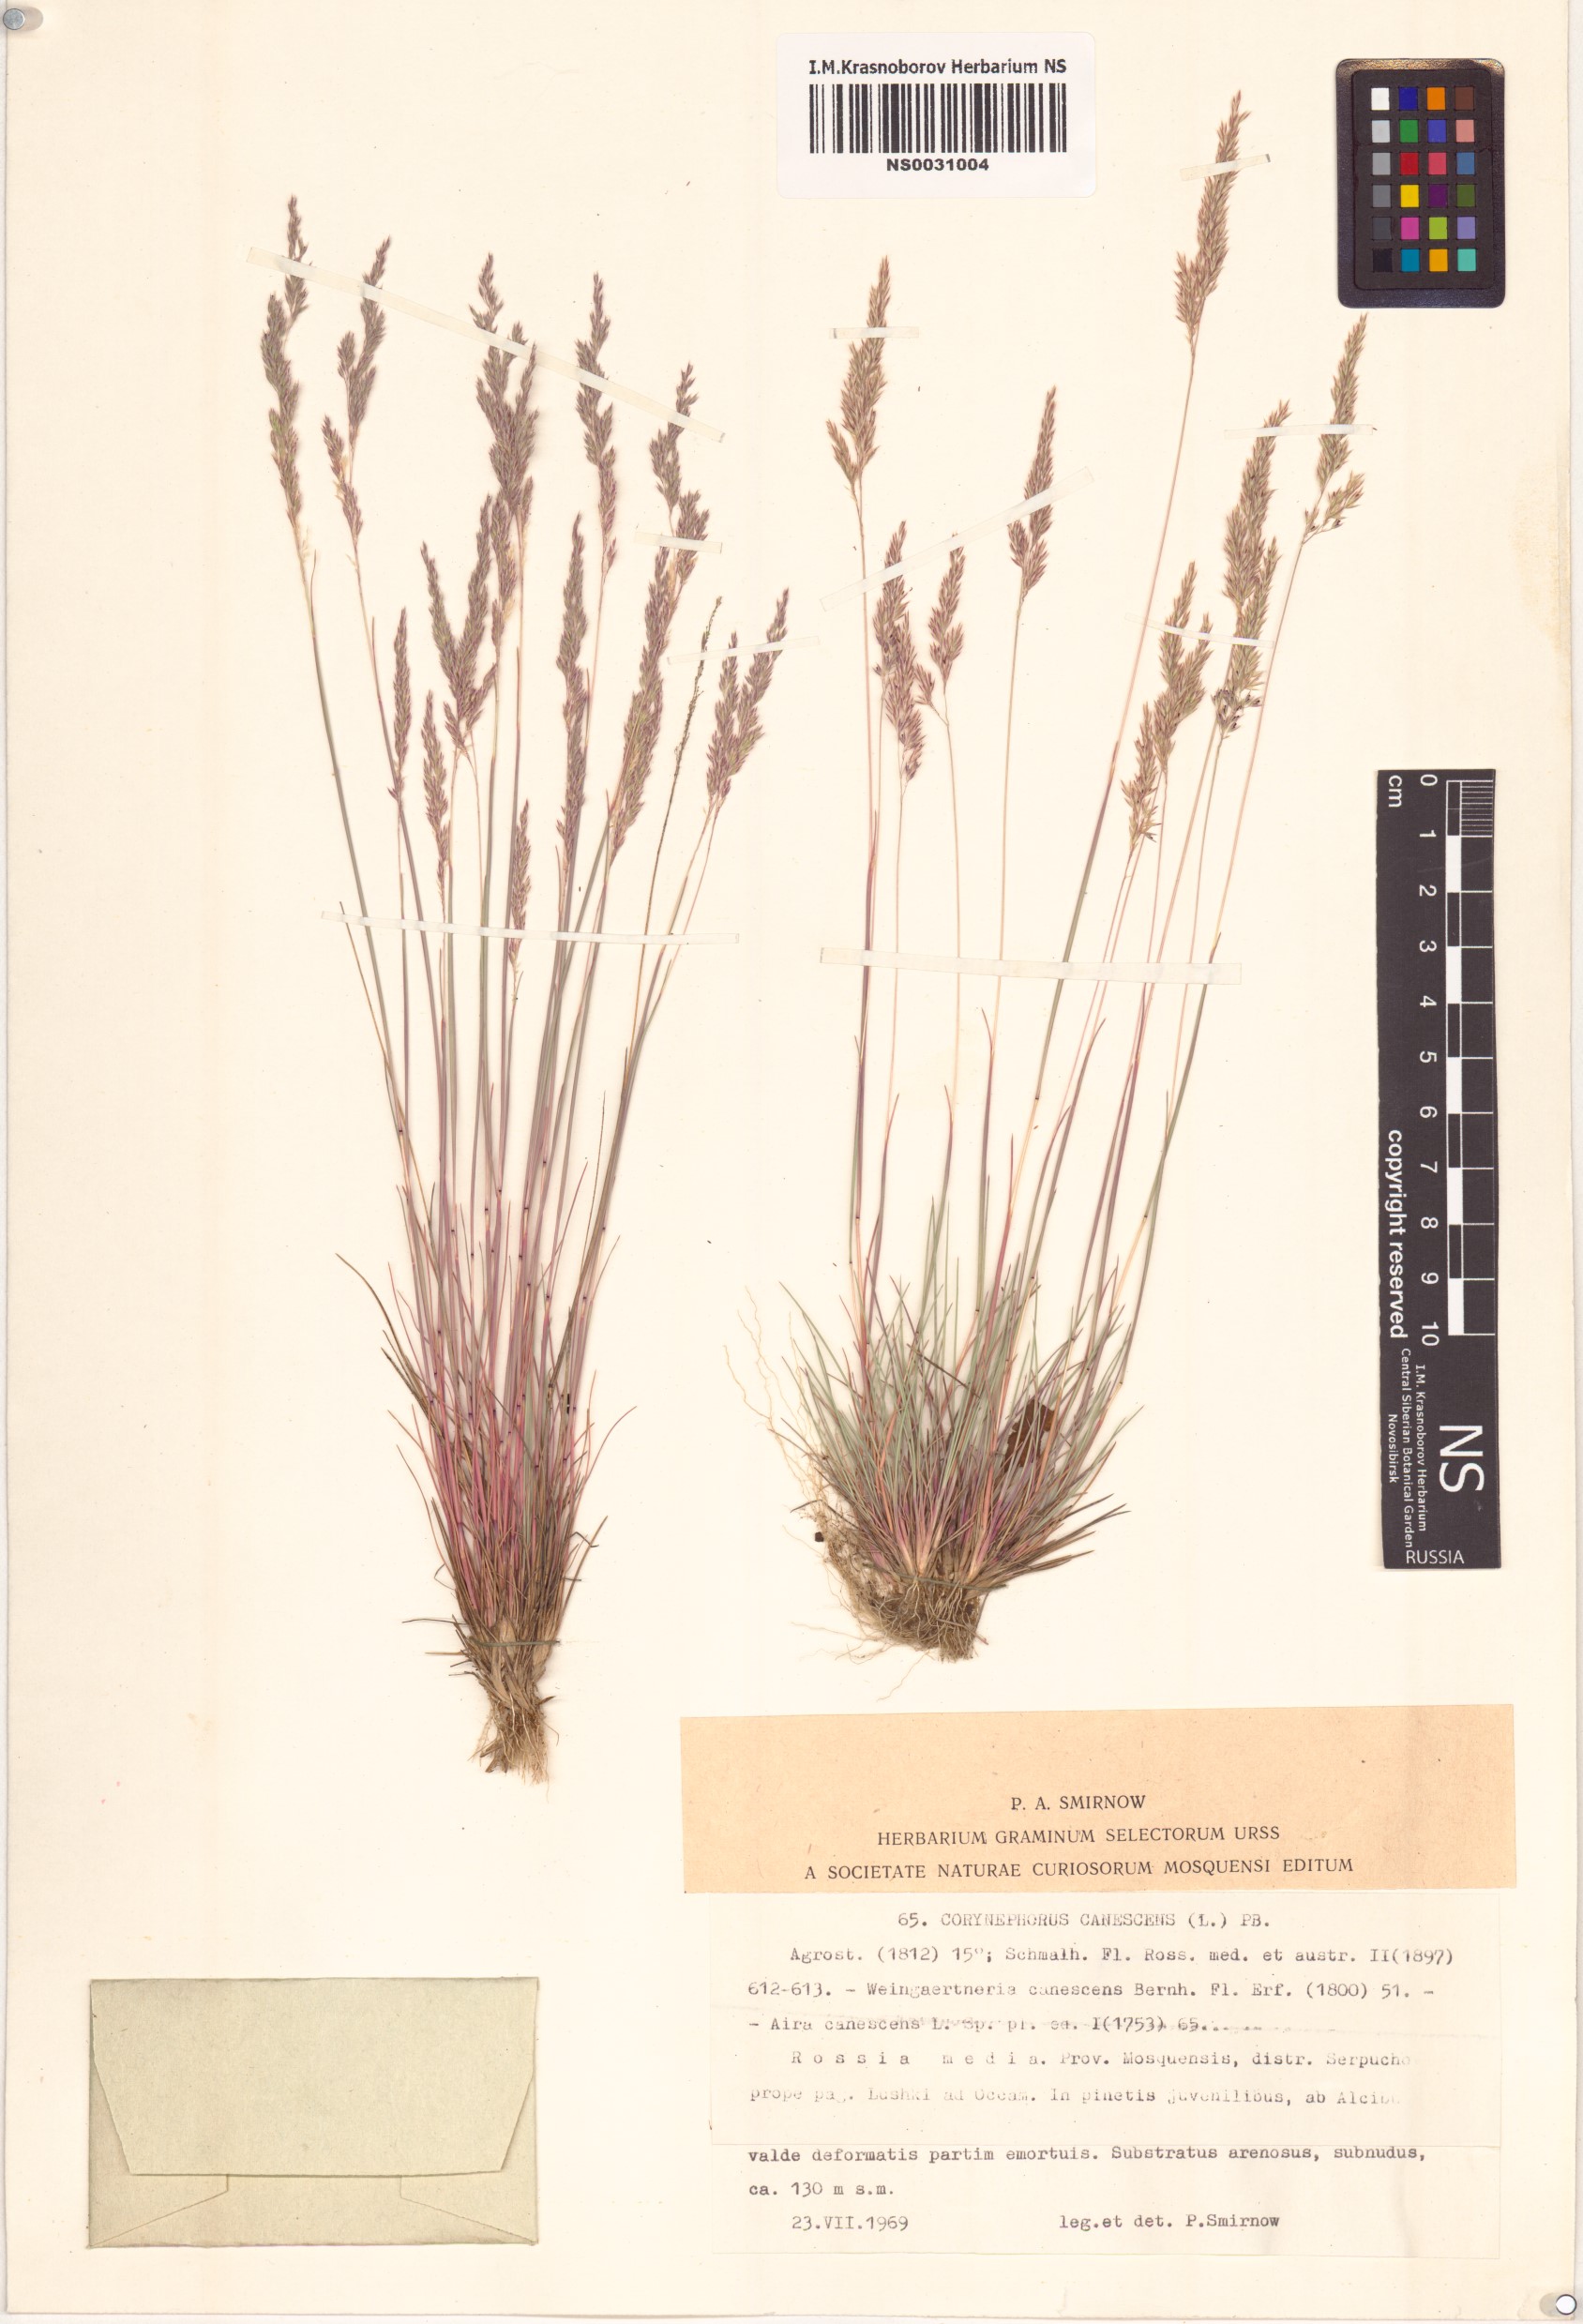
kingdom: Plantae
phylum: Tracheophyta
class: Liliopsida
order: Poales
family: Poaceae
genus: Corynephorus
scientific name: Corynephorus canescens
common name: Grey hair-grass
